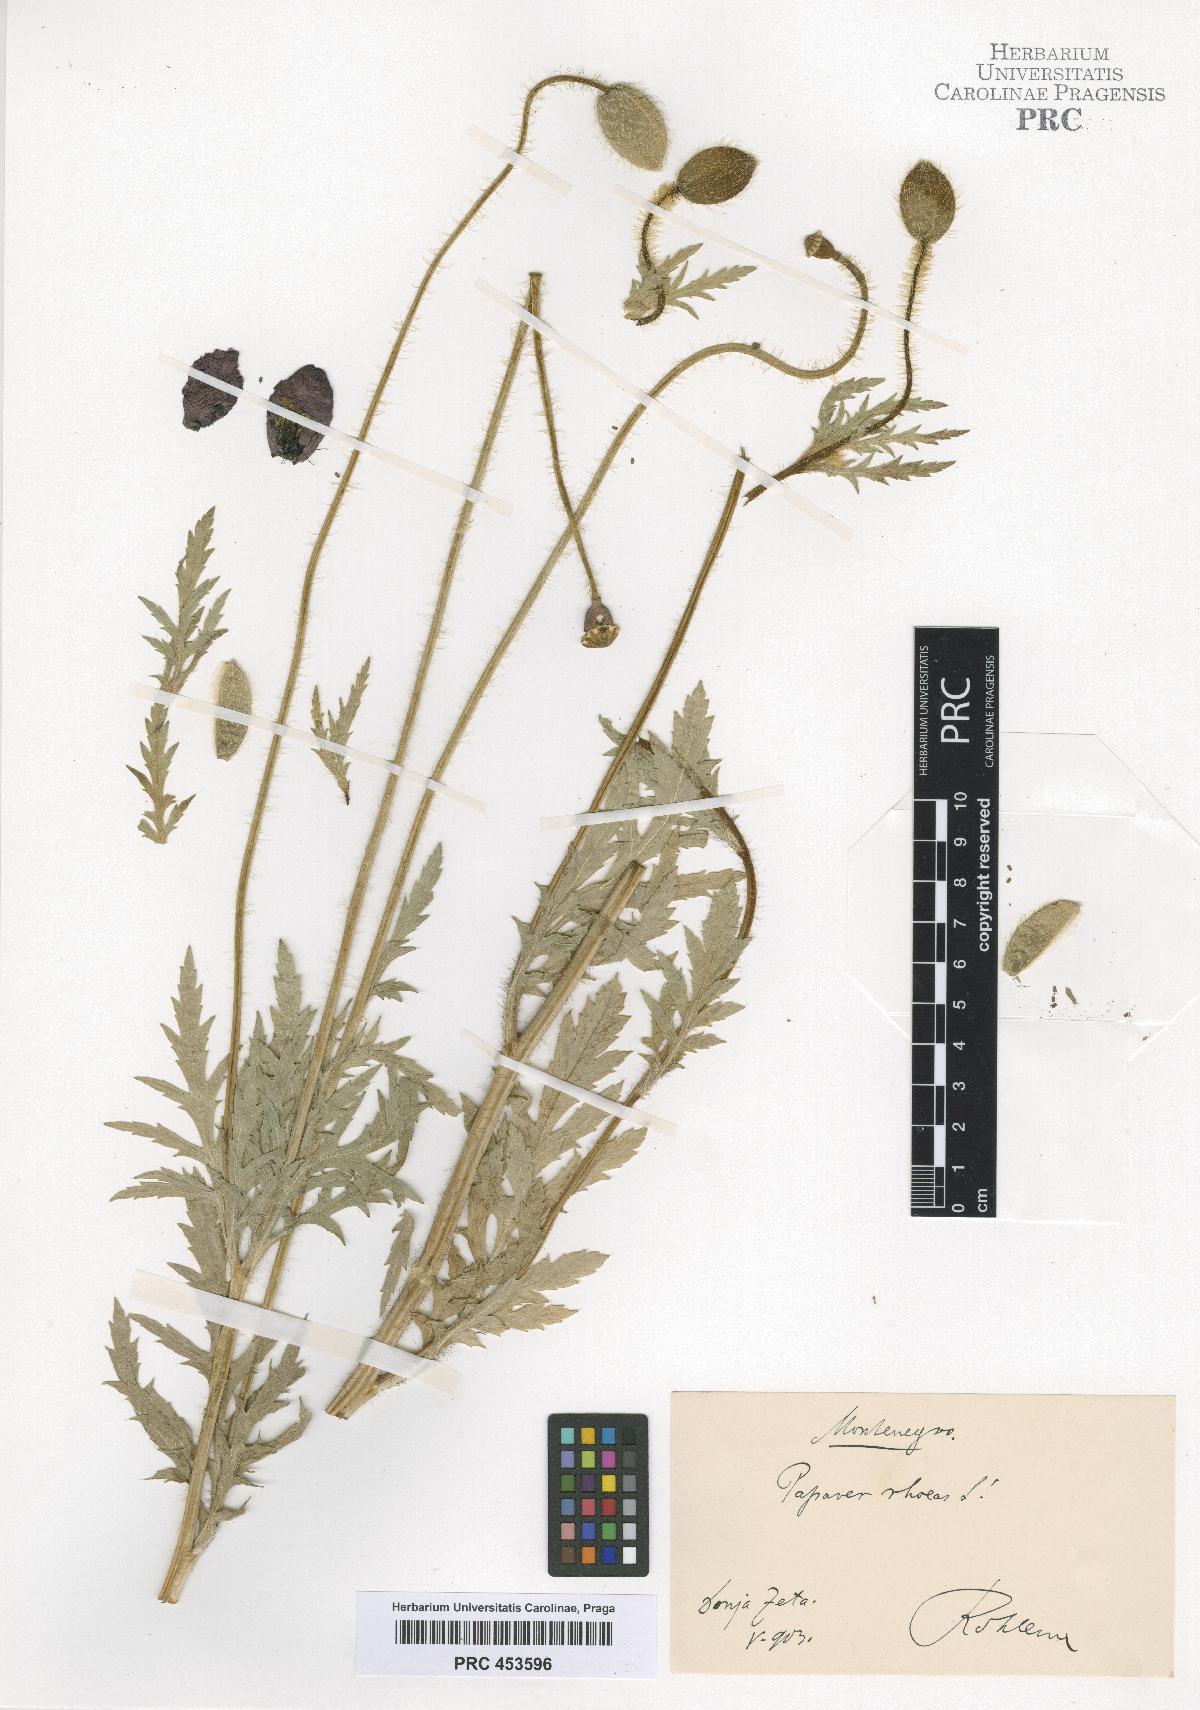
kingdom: Plantae
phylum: Tracheophyta
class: Magnoliopsida
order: Ranunculales
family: Papaveraceae
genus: Papaver
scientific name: Papaver rhoeas
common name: Corn poppy
